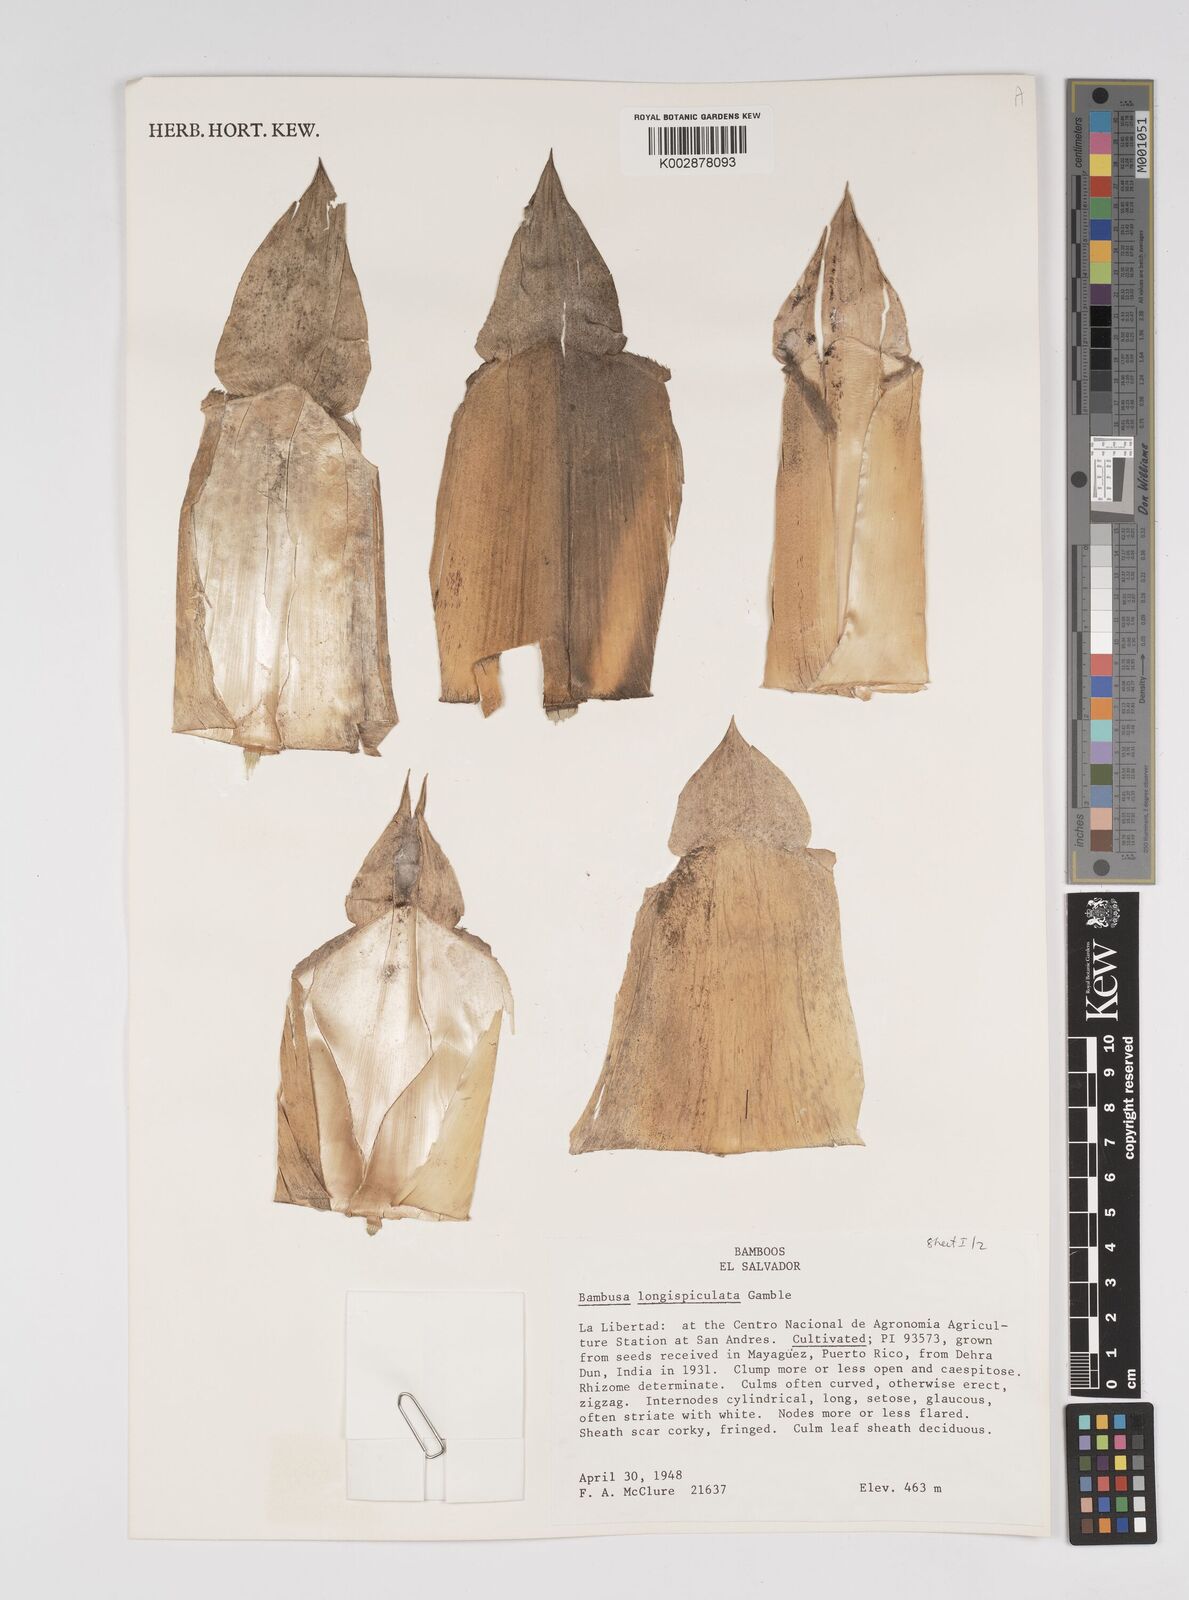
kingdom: Plantae
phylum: Tracheophyta
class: Liliopsida
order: Poales
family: Poaceae
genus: Bambusa
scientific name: Bambusa longispiculata
